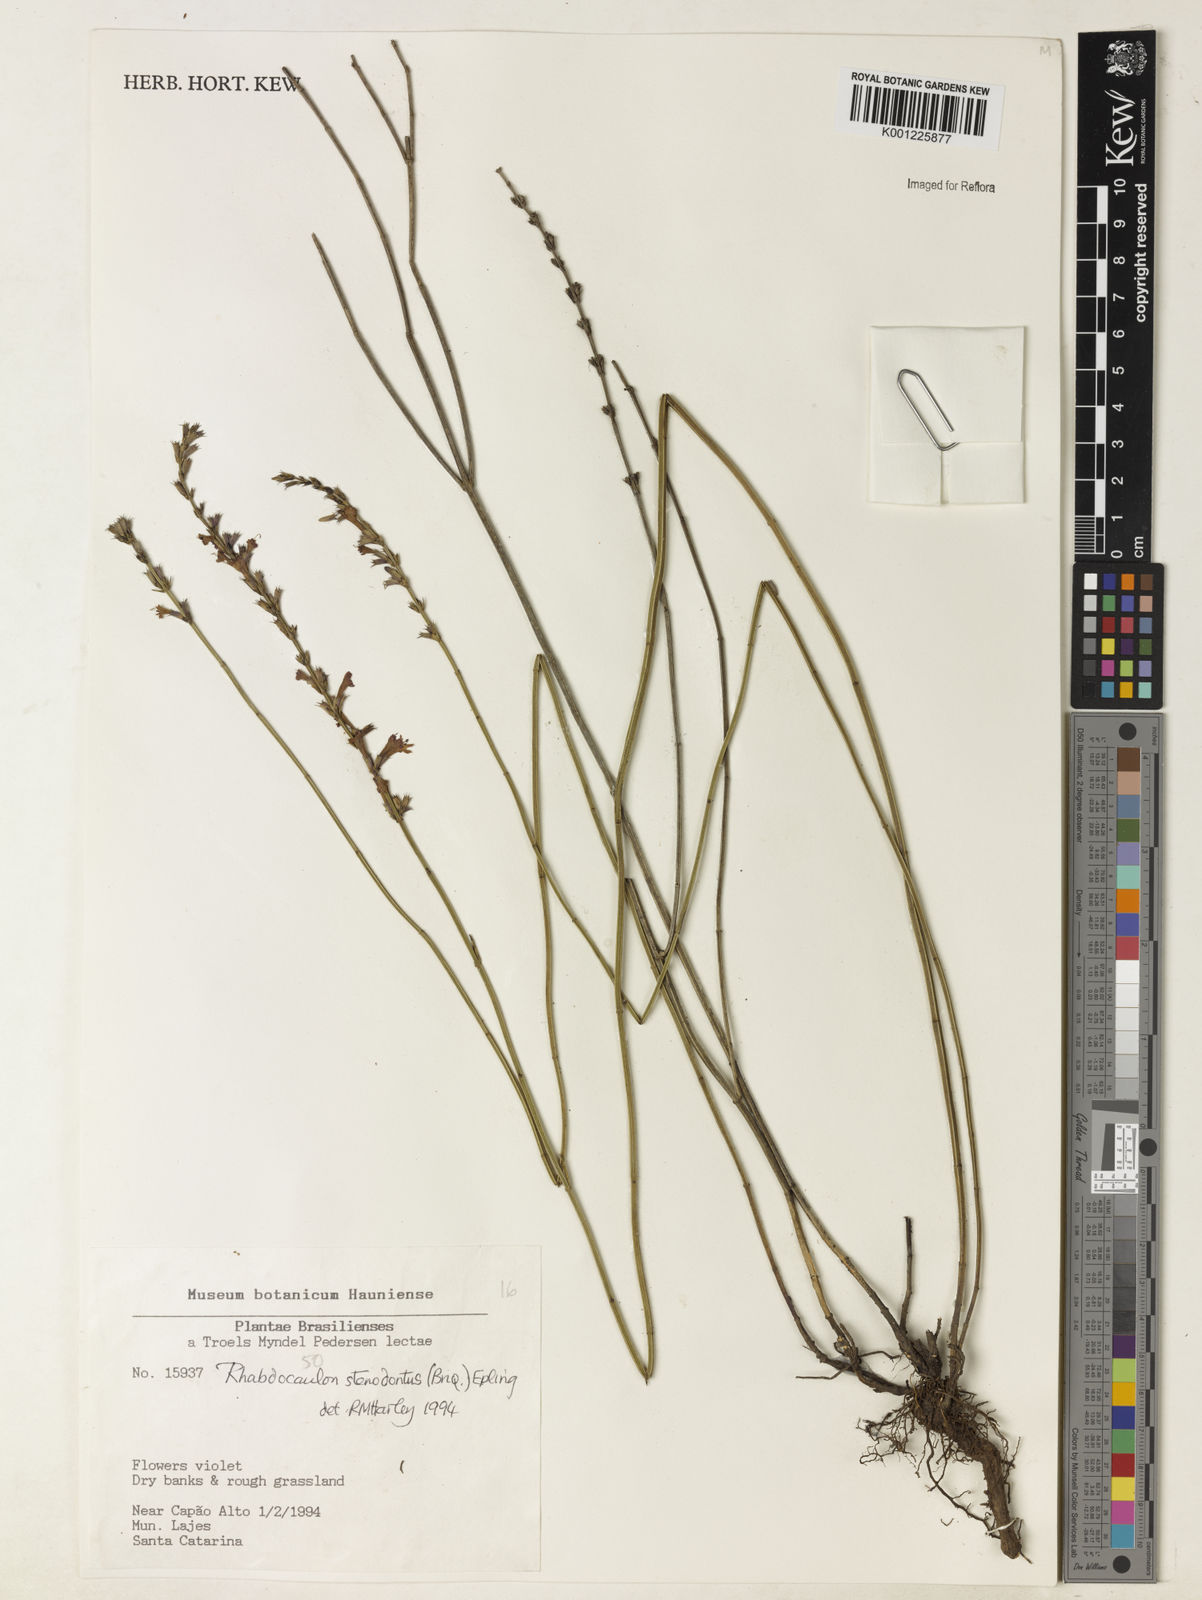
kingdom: Plantae
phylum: Tracheophyta
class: Magnoliopsida
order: Lamiales
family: Lamiaceae
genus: Rhabdocaulon
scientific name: Rhabdocaulon stenodontum
